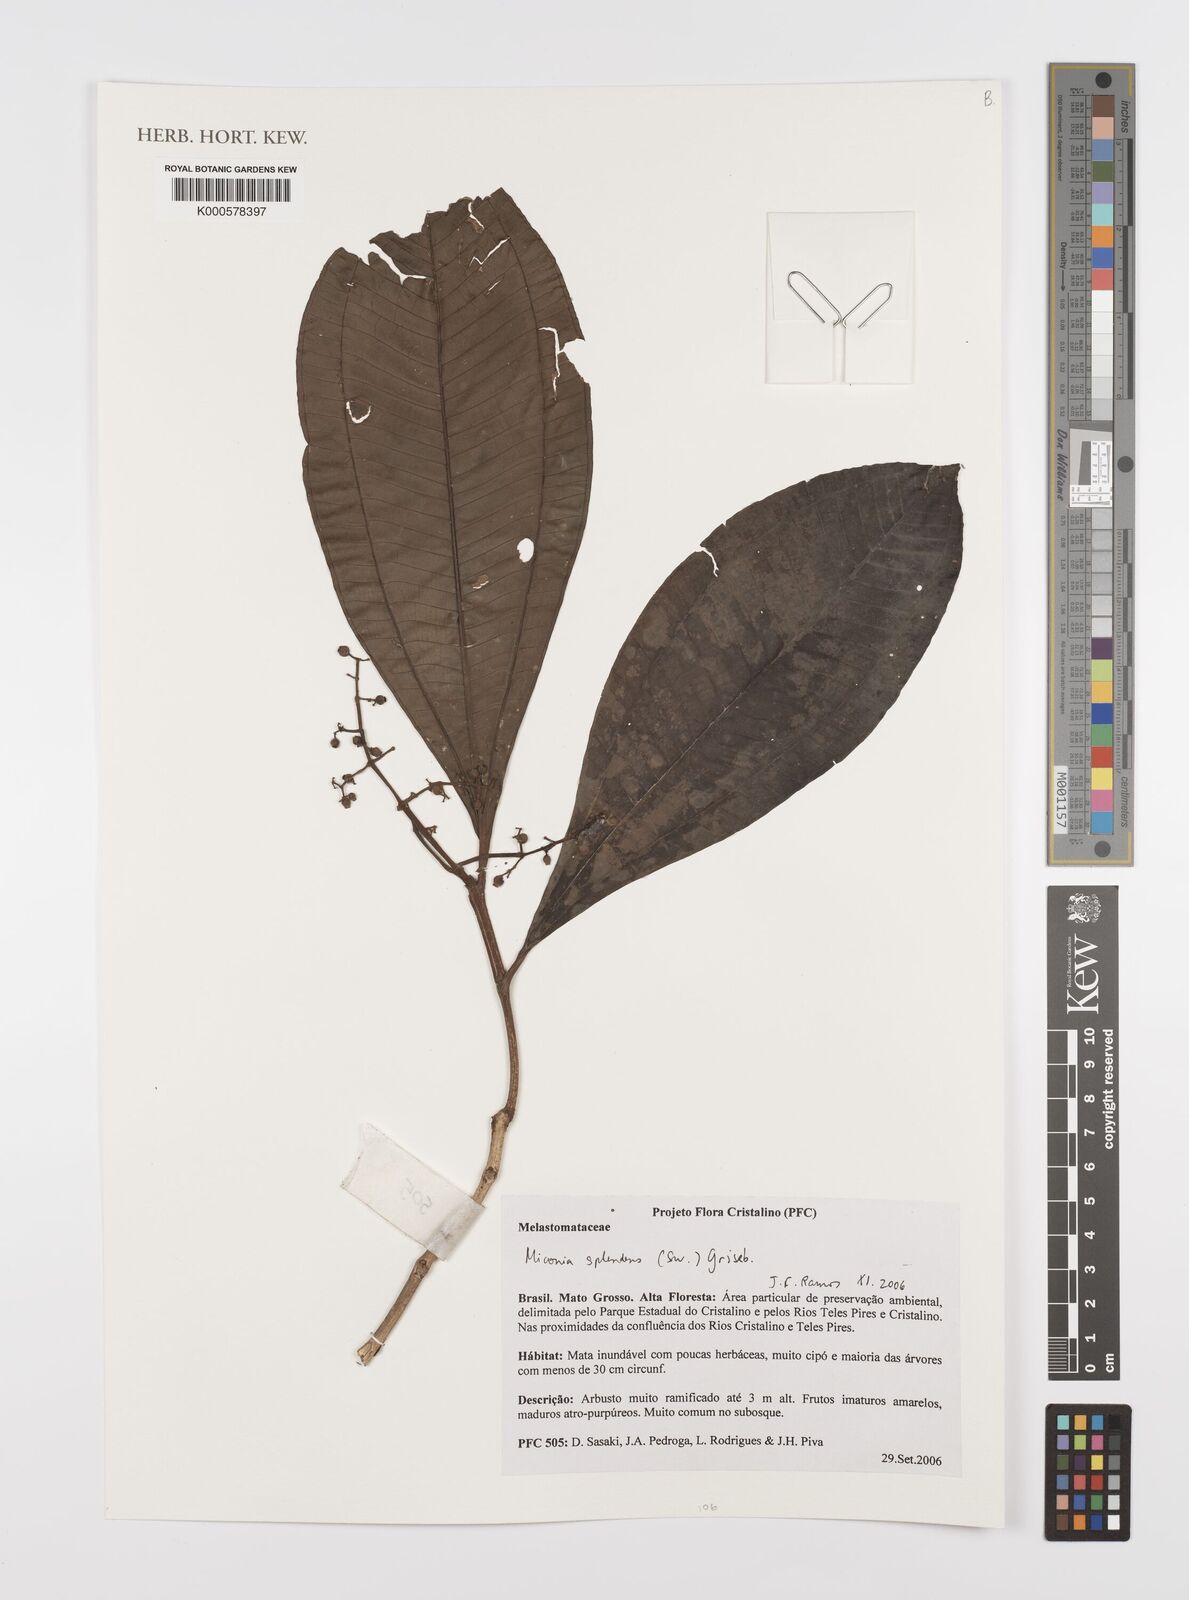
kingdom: Plantae
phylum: Tracheophyta
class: Magnoliopsida
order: Myrtales
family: Melastomataceae
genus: Miconia
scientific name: Miconia splendens
